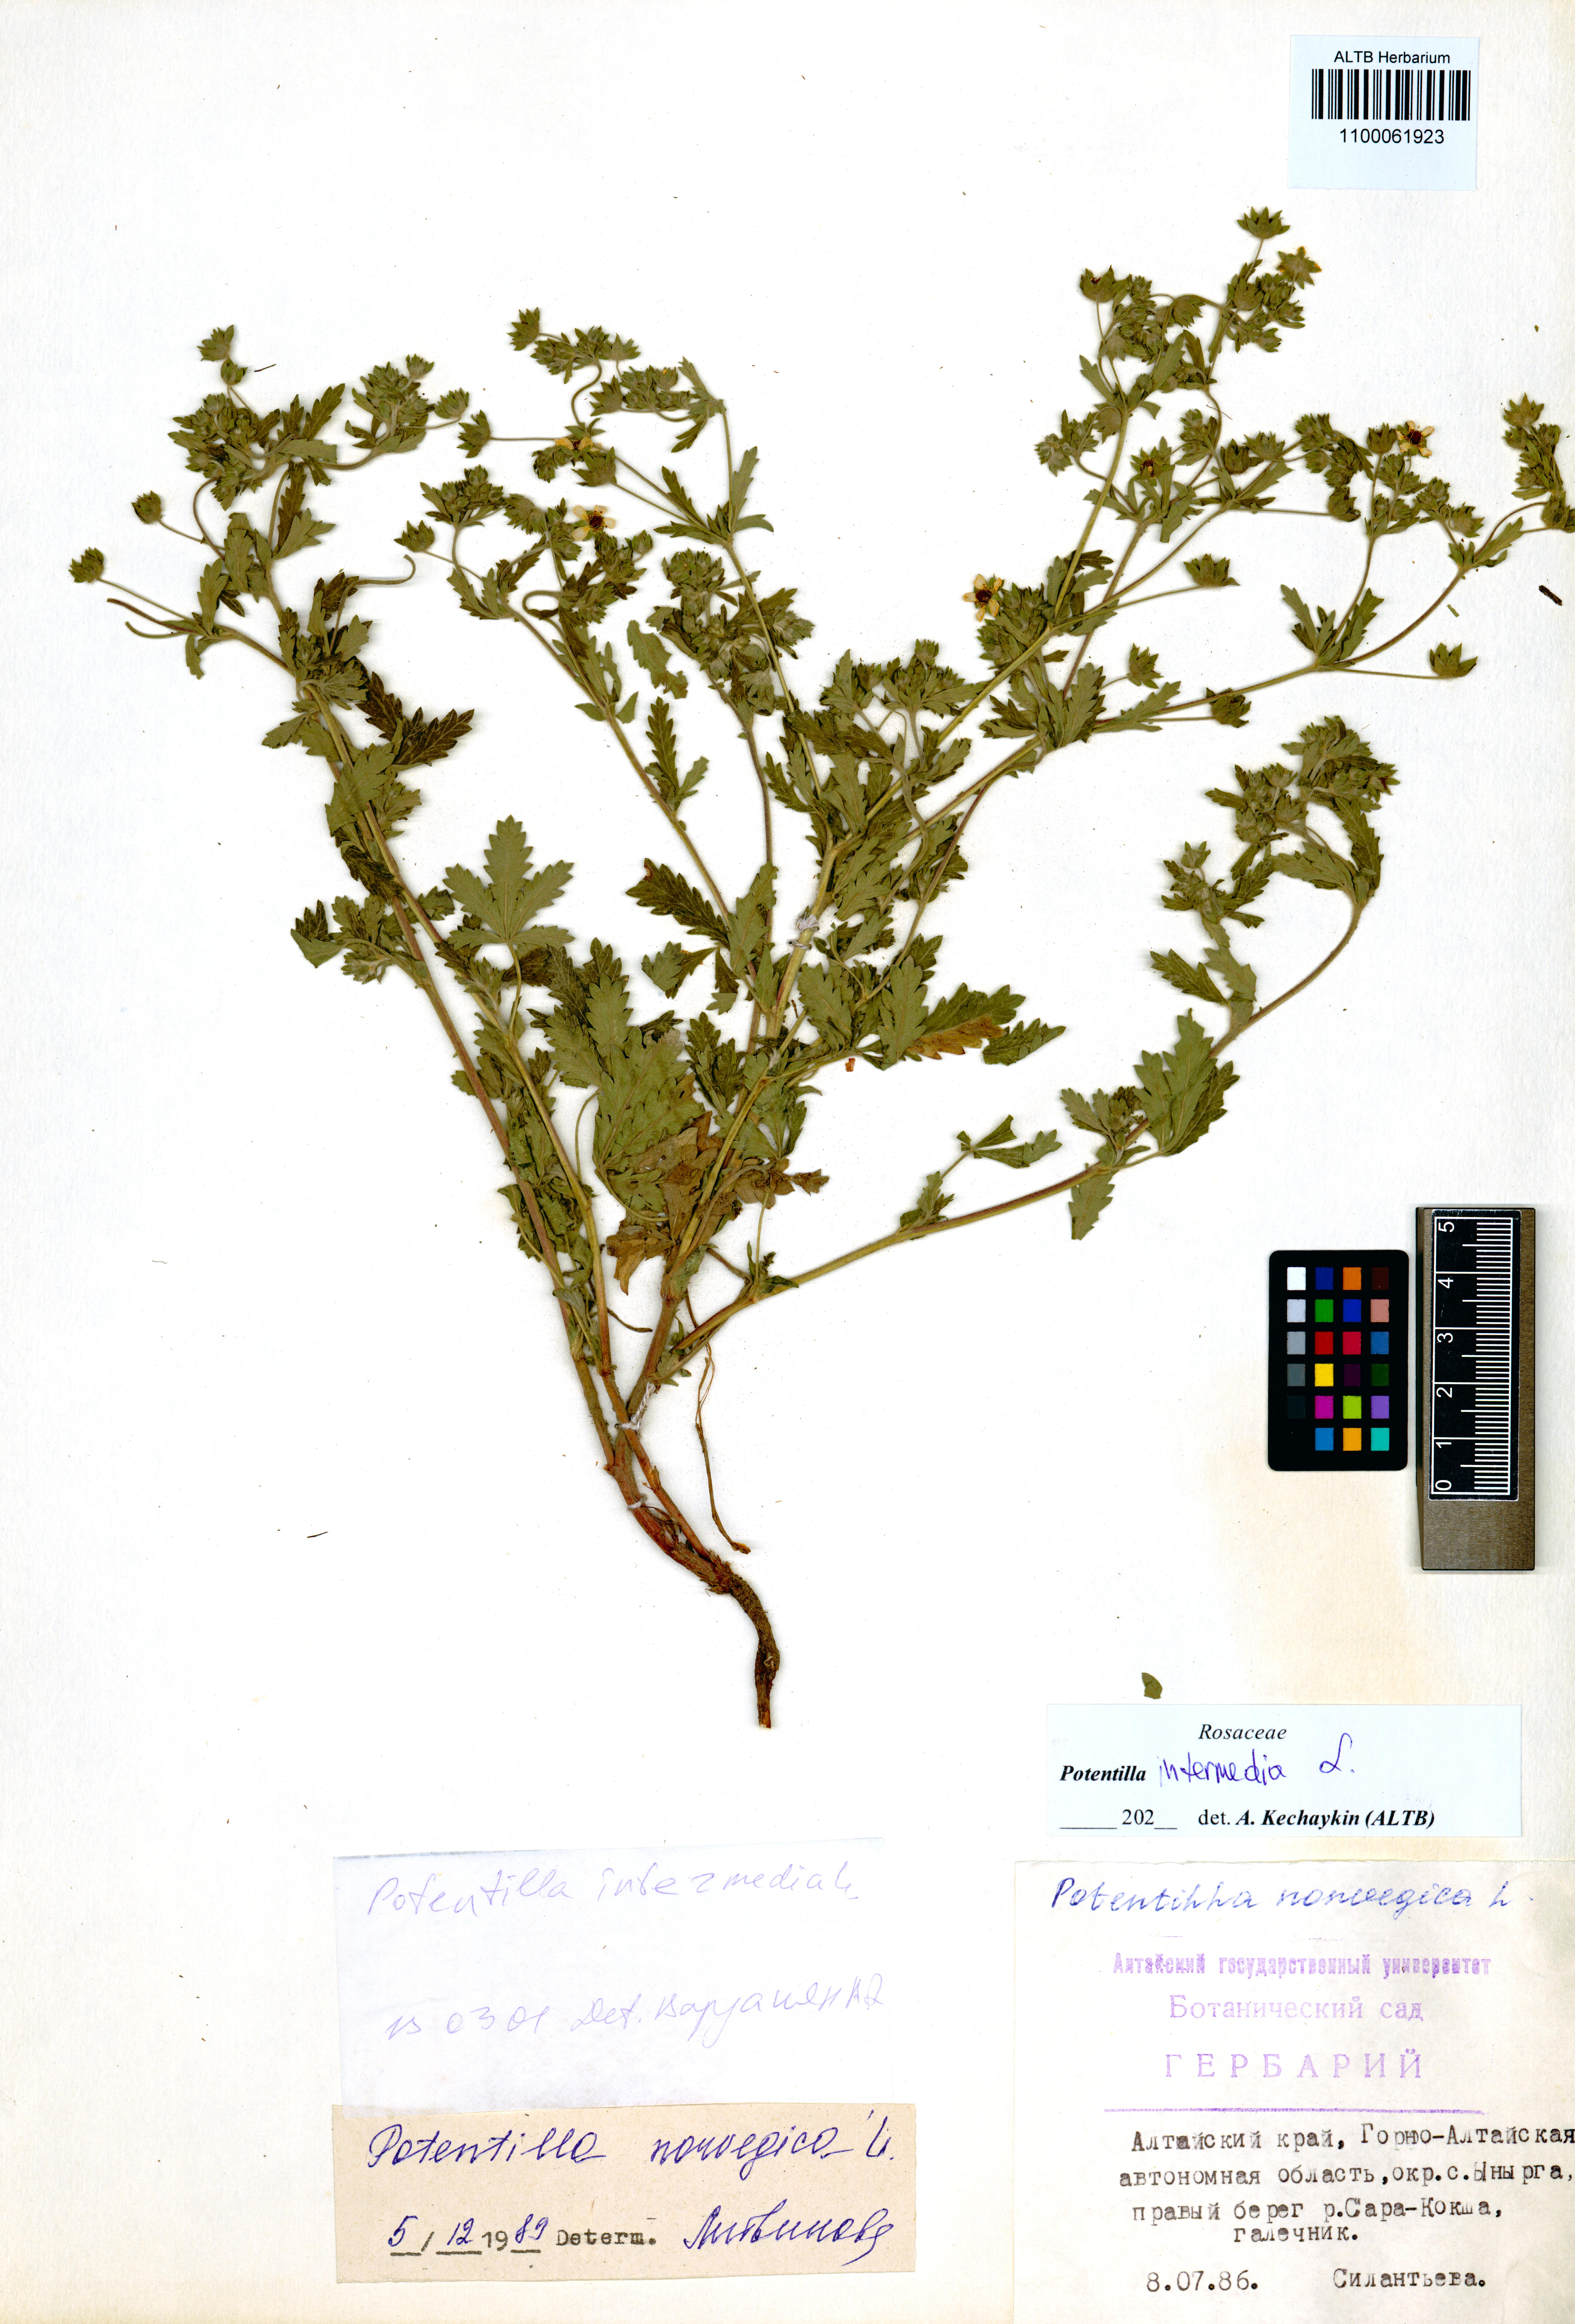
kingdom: Plantae
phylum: Tracheophyta
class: Magnoliopsida
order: Rosales
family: Rosaceae
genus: Potentilla
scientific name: Potentilla intermedia
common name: Downy cinquefoil
